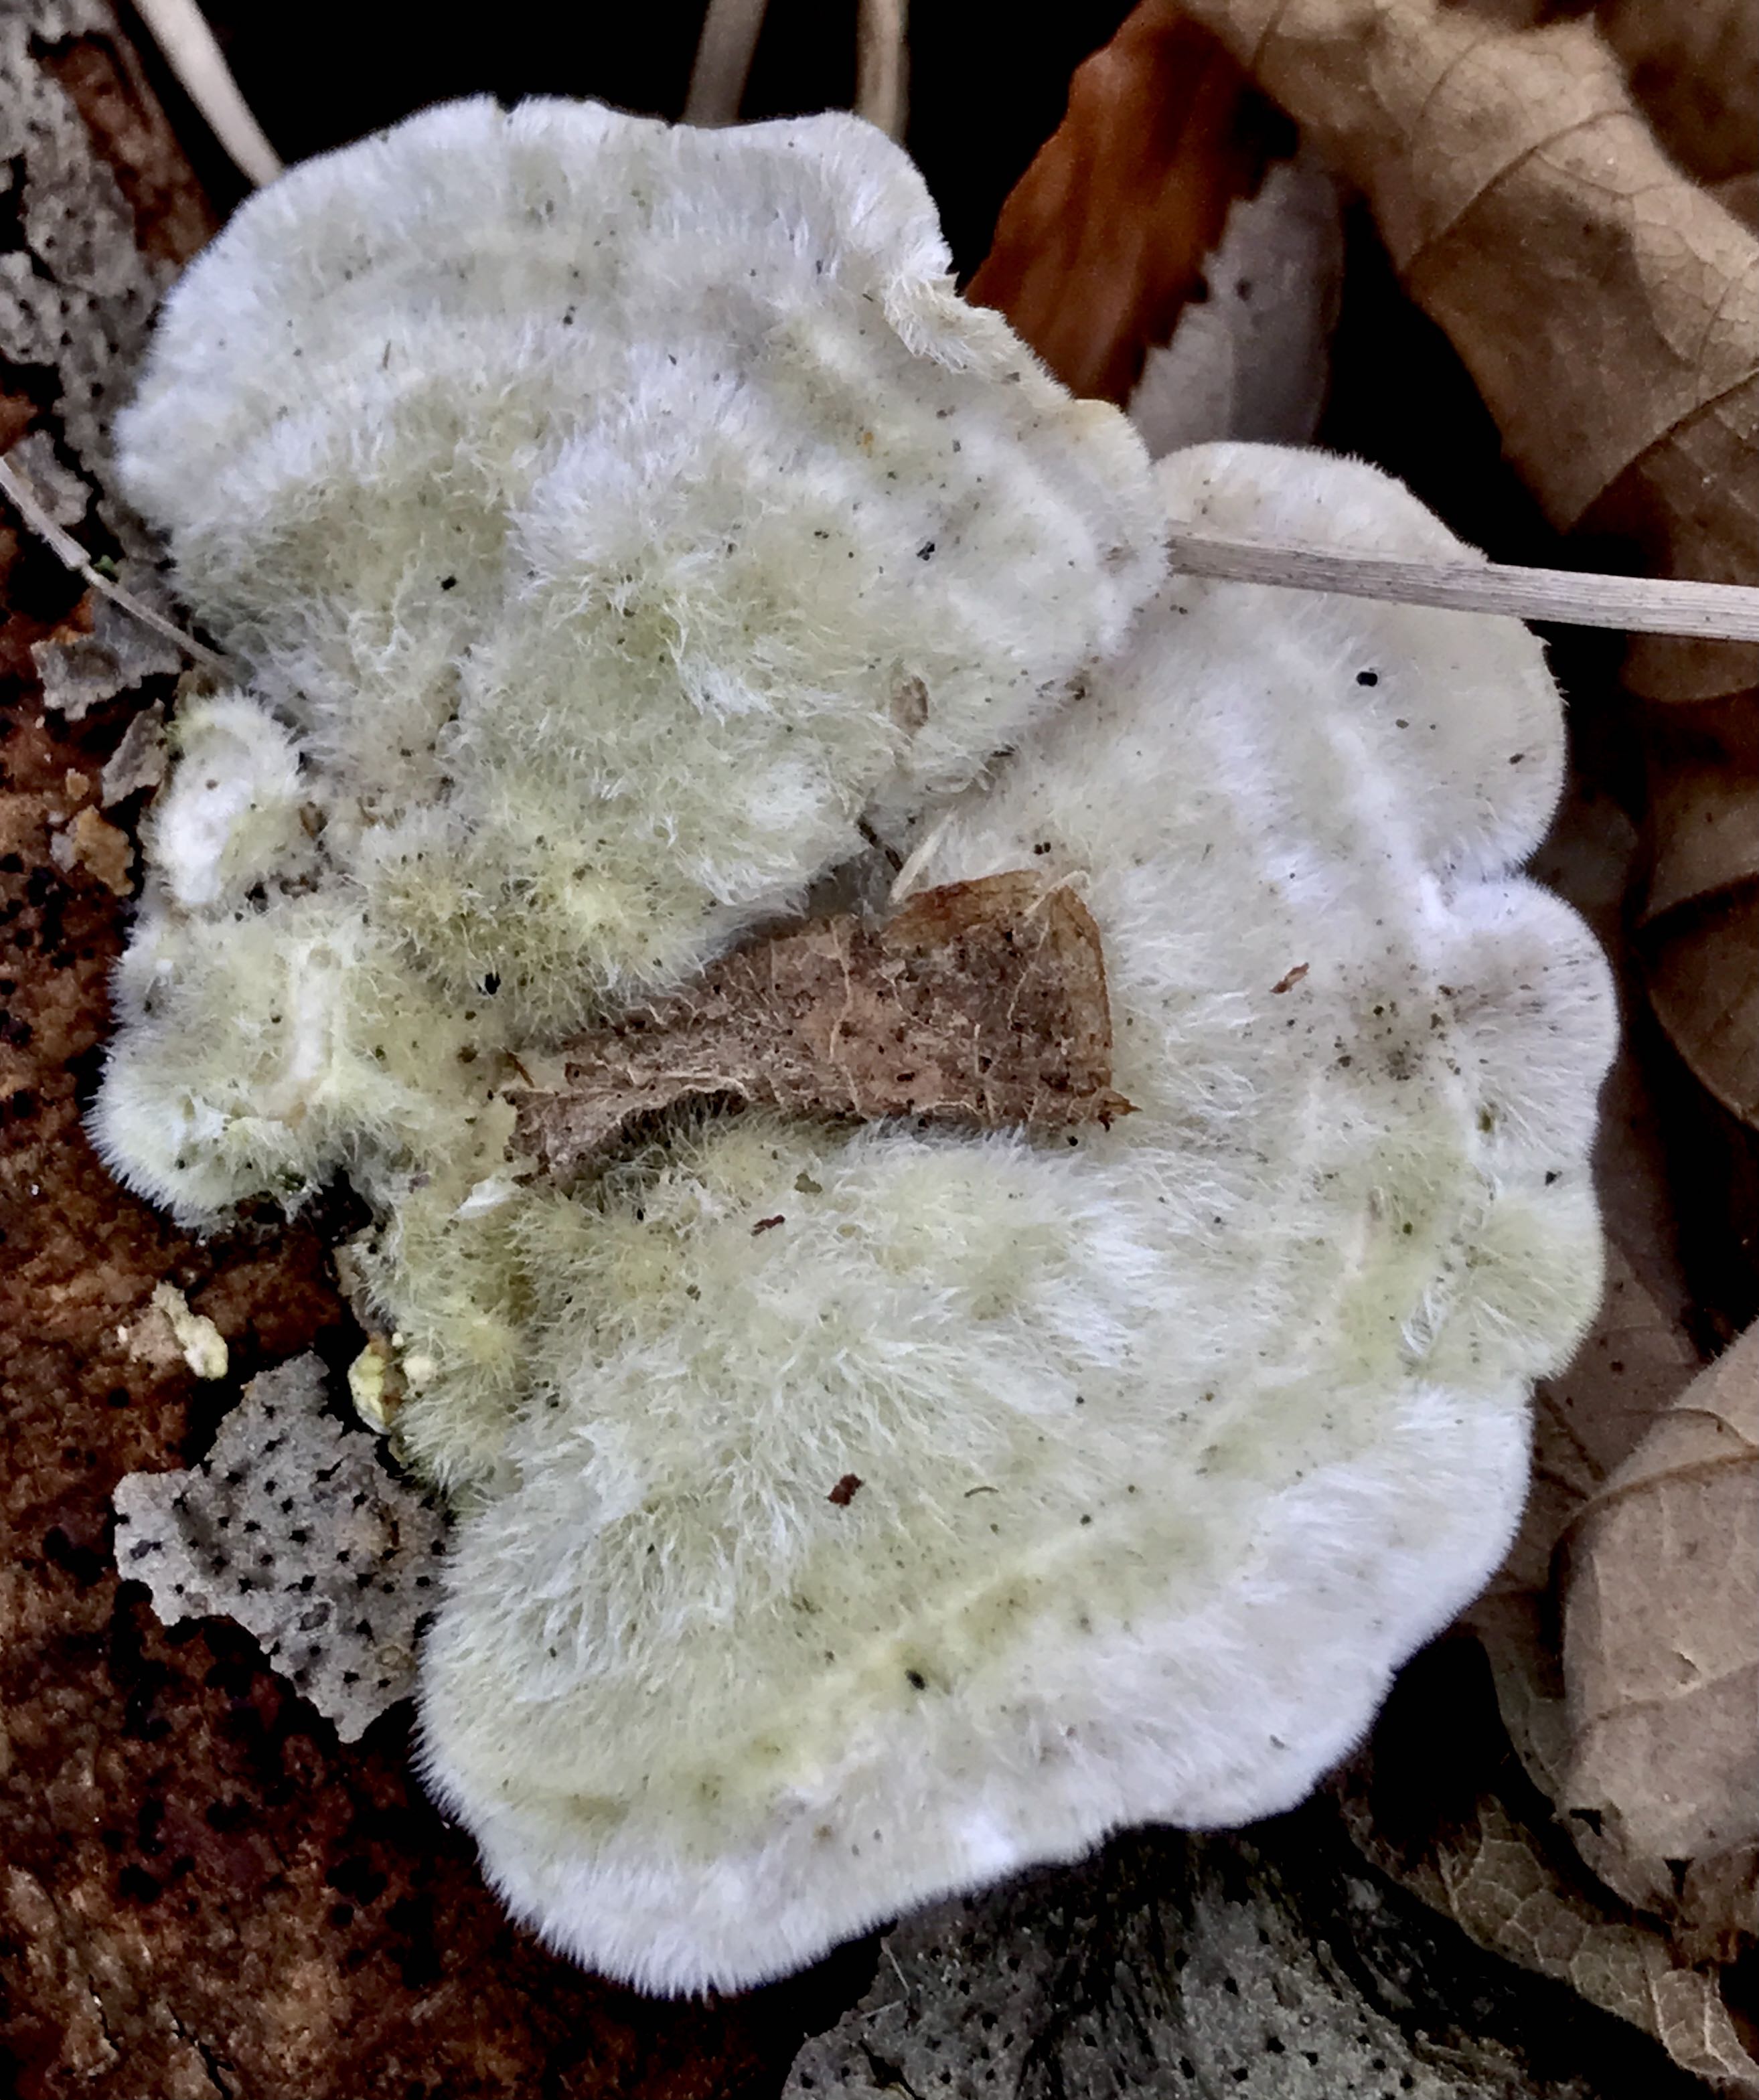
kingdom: Fungi
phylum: Basidiomycota
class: Agaricomycetes
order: Polyporales
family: Polyporaceae
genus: Trametes
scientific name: Trametes hirsuta
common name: håret læderporesvamp
